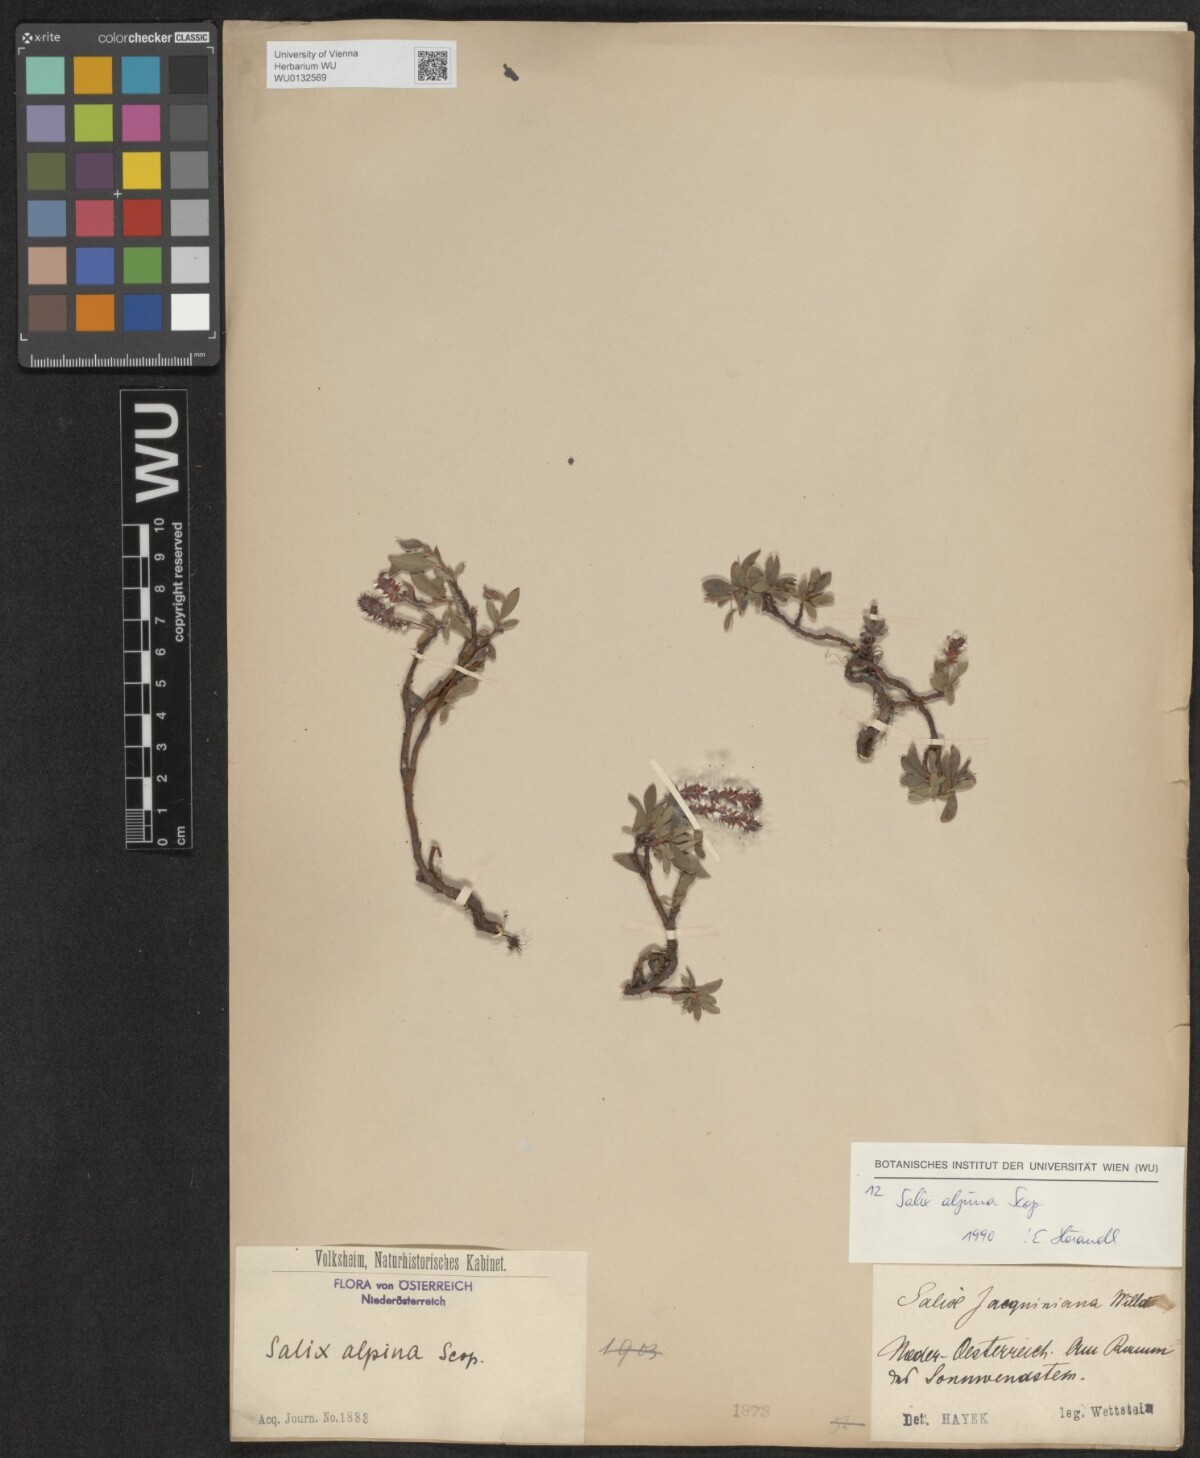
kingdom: Plantae
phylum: Tracheophyta
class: Magnoliopsida
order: Malpighiales
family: Salicaceae
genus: Salix
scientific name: Salix alpina
